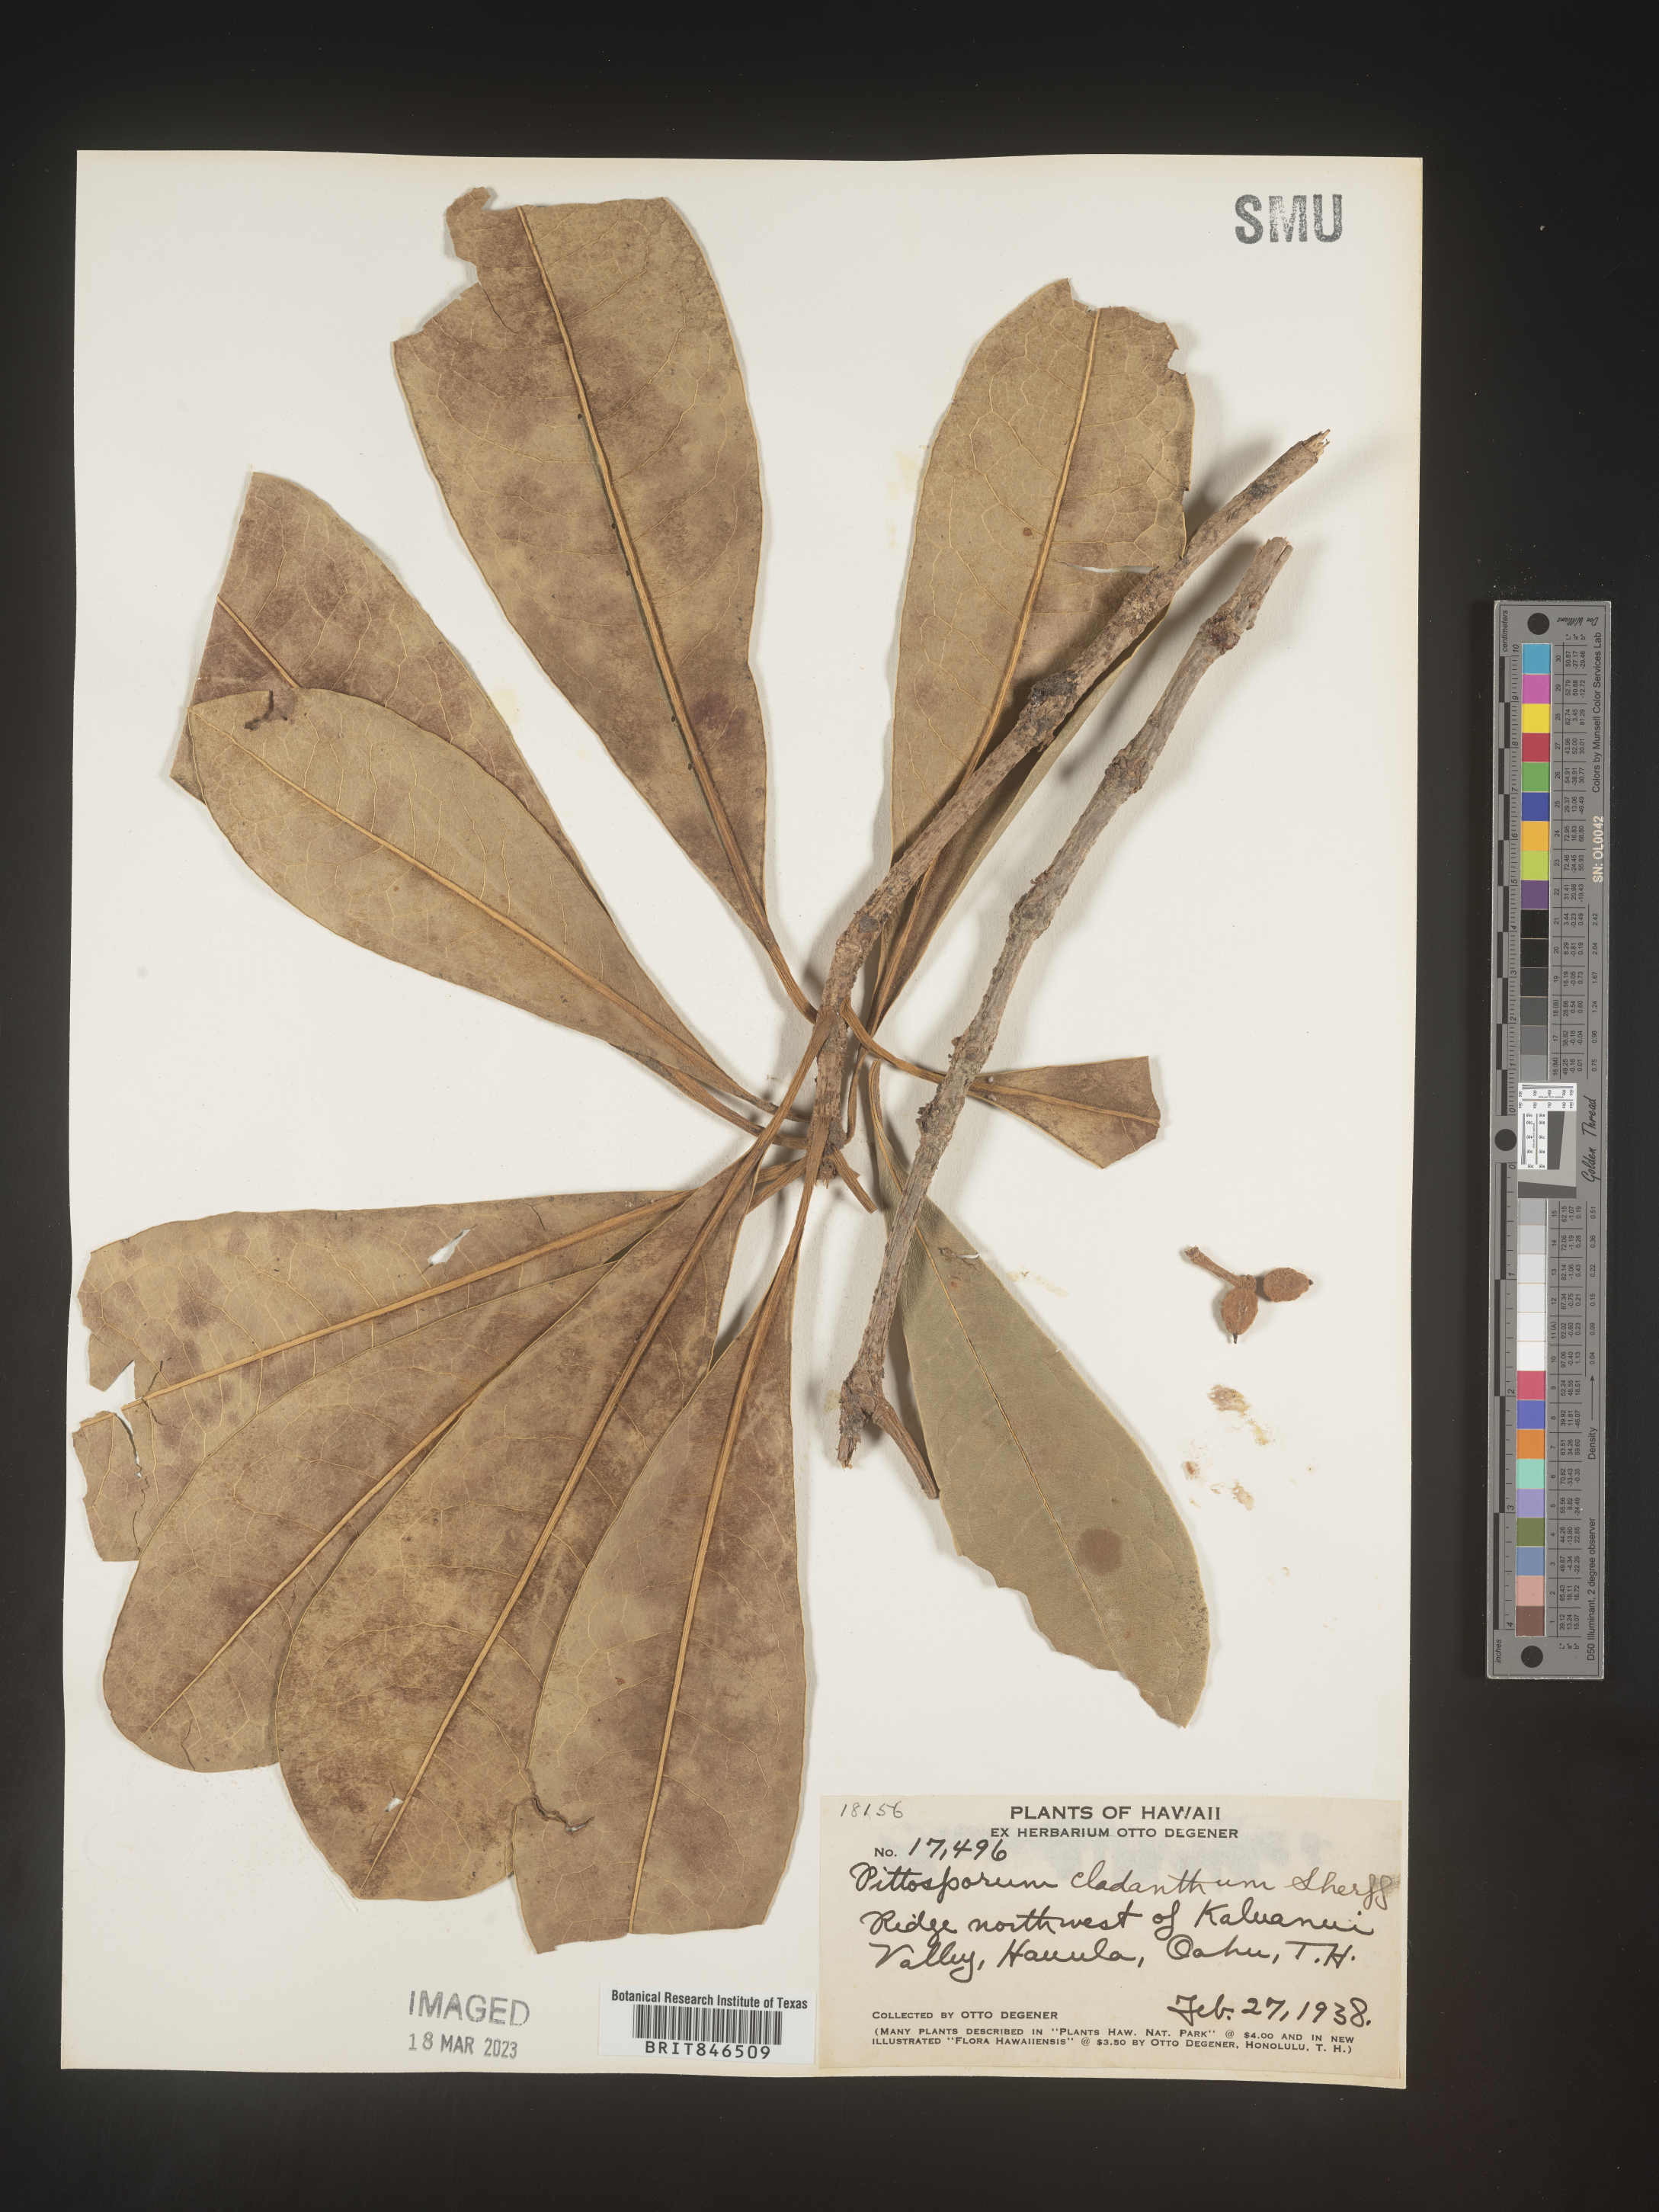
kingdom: Plantae
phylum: Tracheophyta
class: Magnoliopsida
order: Apiales
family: Pittosporaceae
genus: Pittosporum
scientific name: Pittosporum
